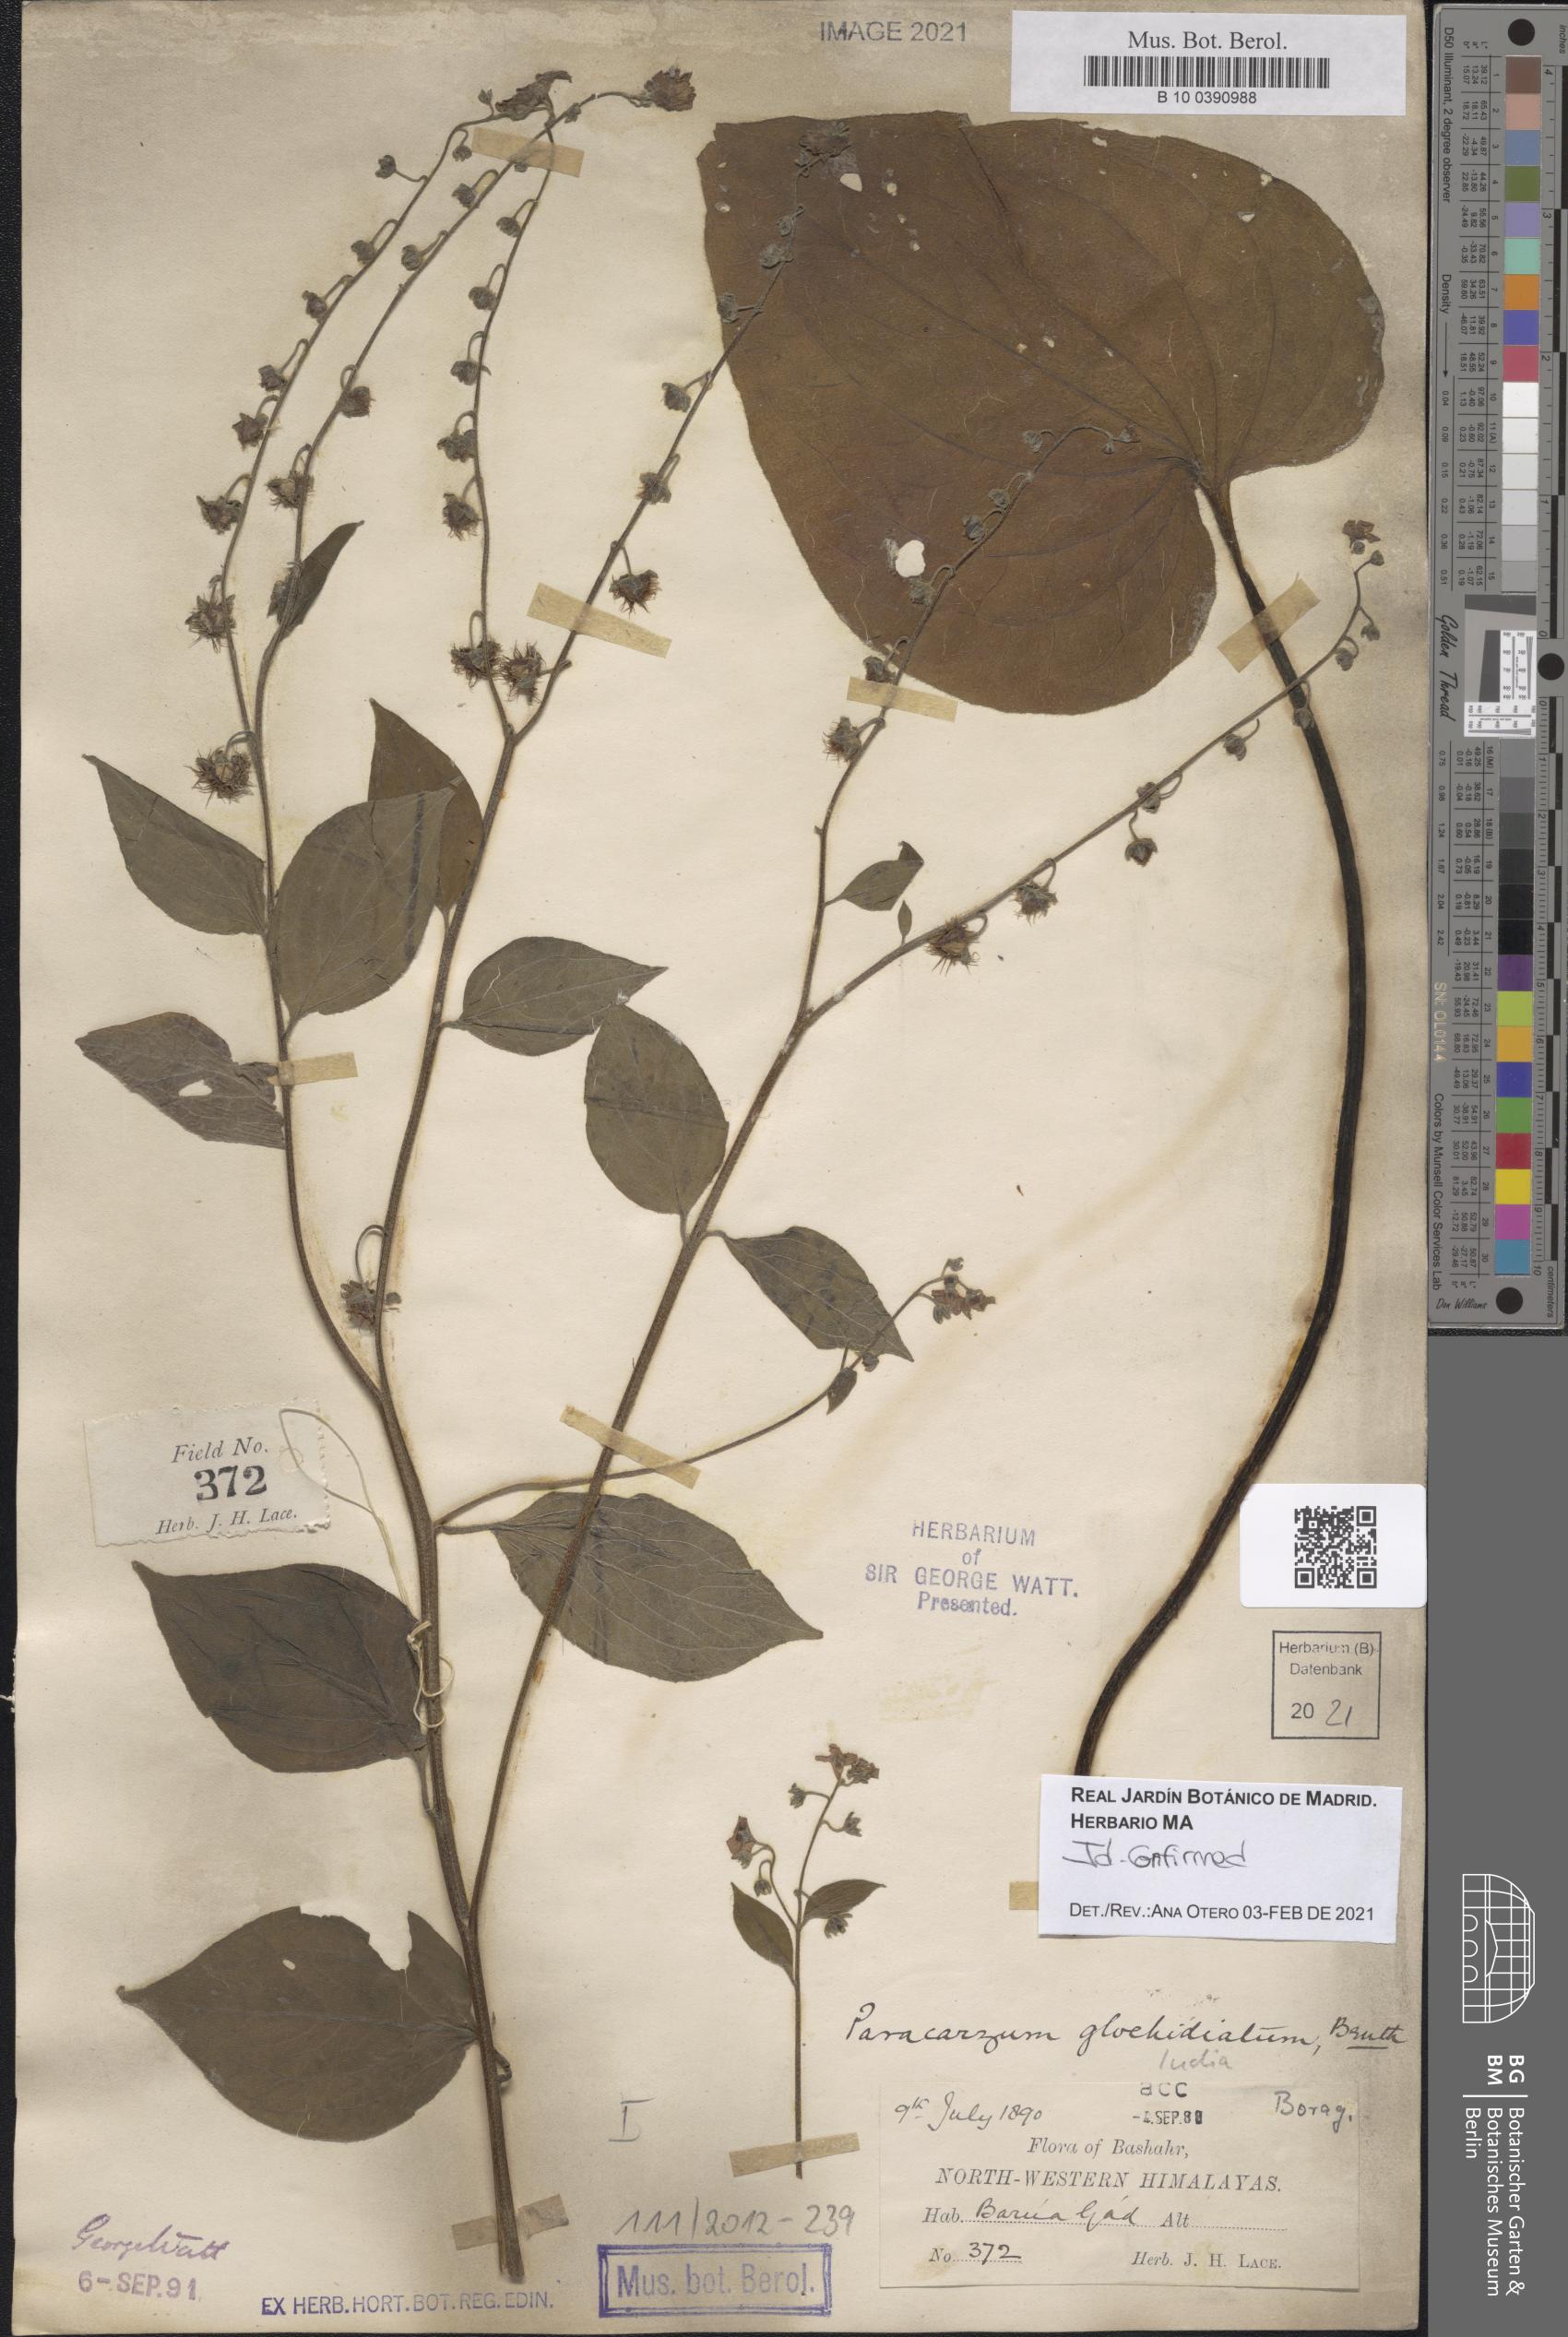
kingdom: Plantae
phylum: Tracheophyta
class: Magnoliopsida
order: Boraginales
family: Boraginaceae
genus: Microparacaryum
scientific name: Microparacaryum intermedium
